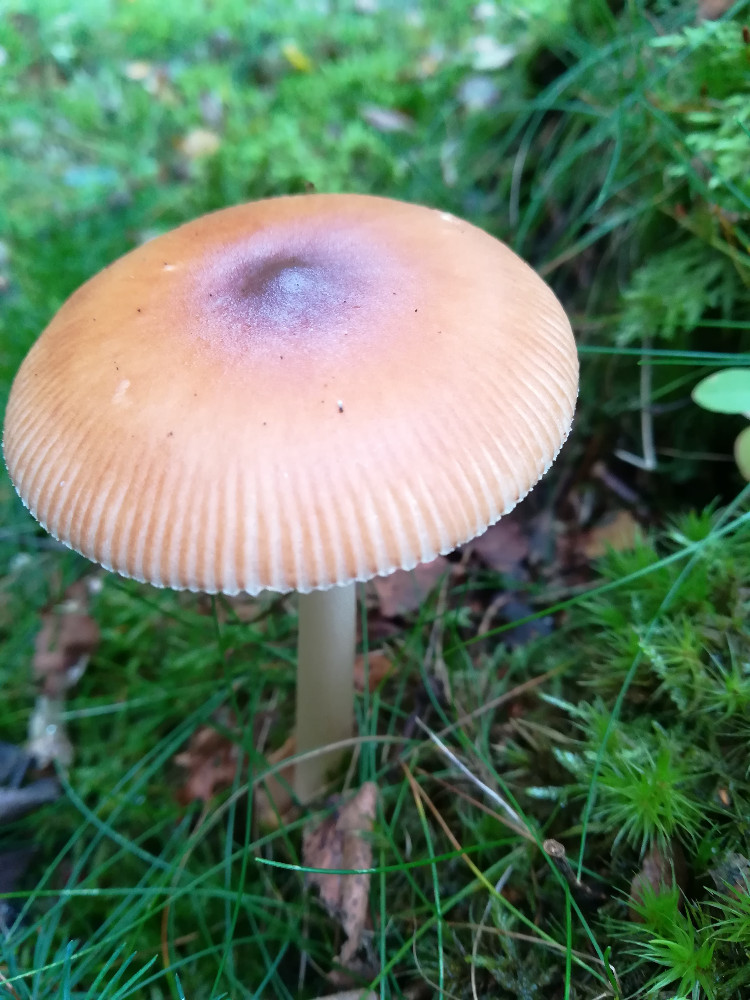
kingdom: Fungi
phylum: Basidiomycota
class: Agaricomycetes
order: Agaricales
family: Amanitaceae
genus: Amanita
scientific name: Amanita fulva
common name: brun kam-fluesvamp
